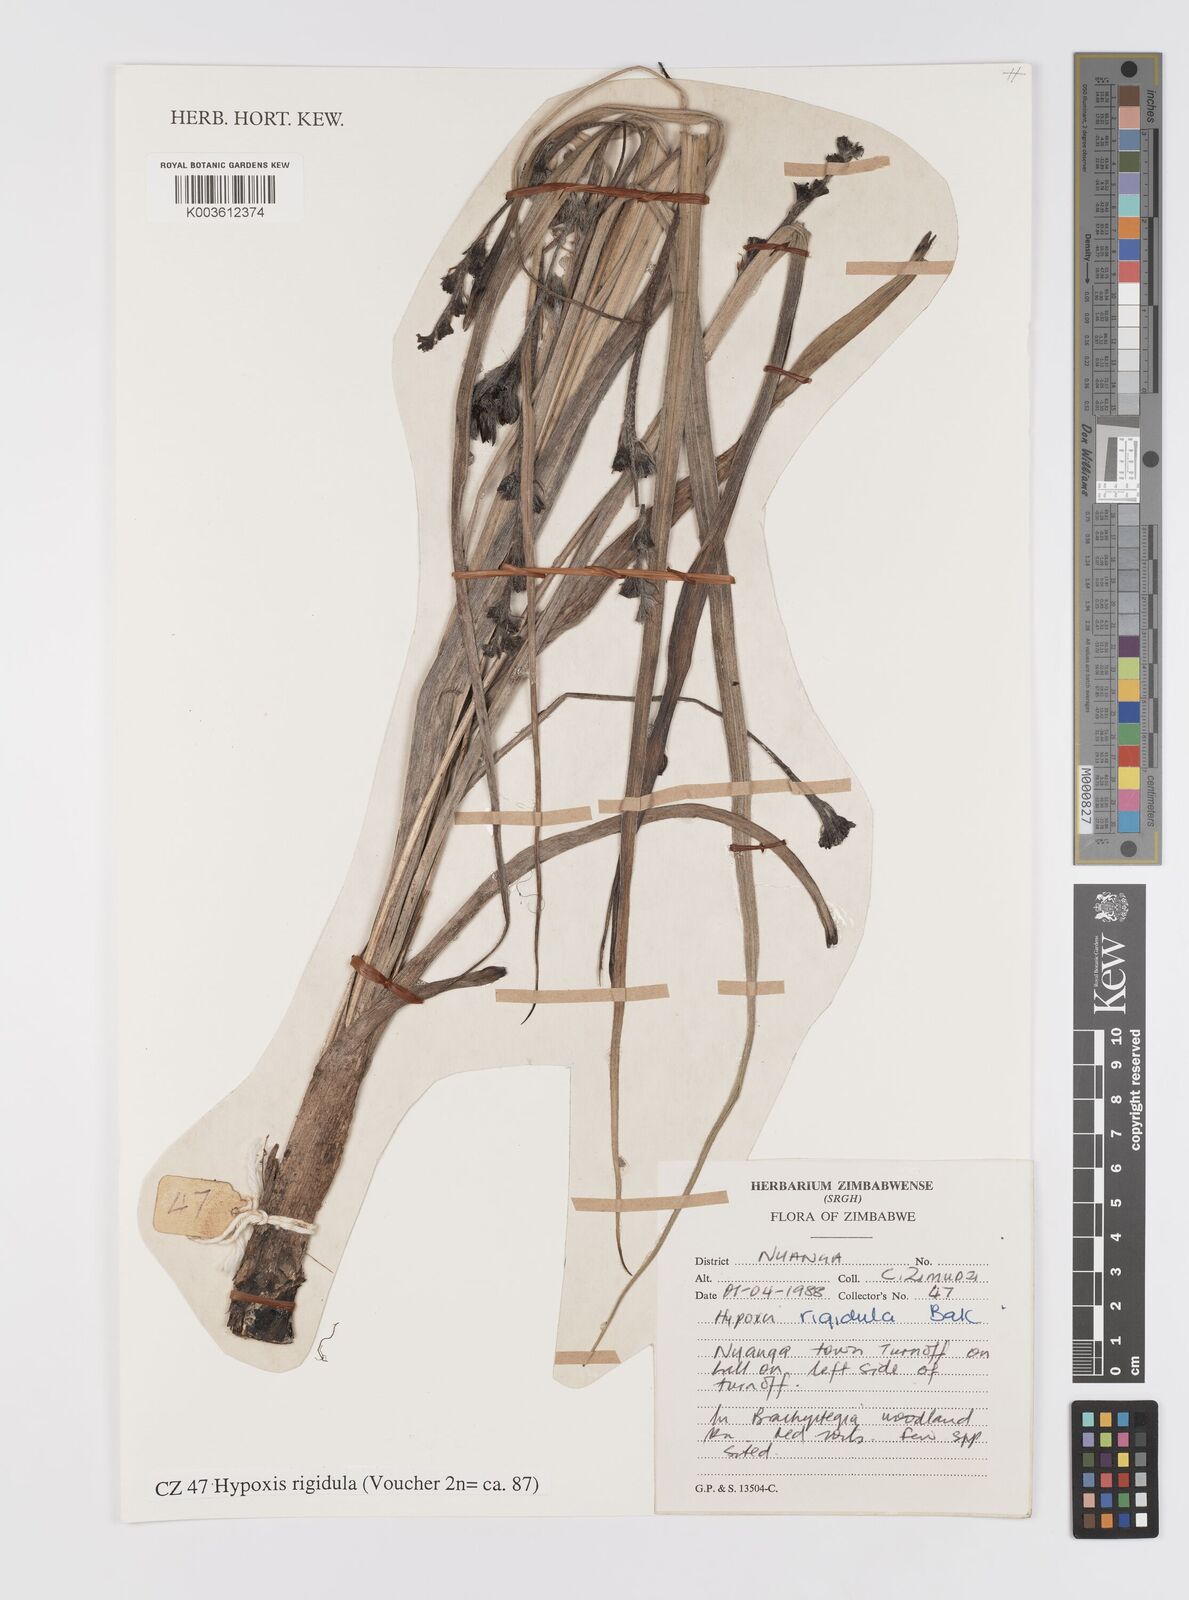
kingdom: Plantae
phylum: Tracheophyta
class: Liliopsida
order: Asparagales
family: Hypoxidaceae
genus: Hypoxis
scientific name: Hypoxis rigidula
